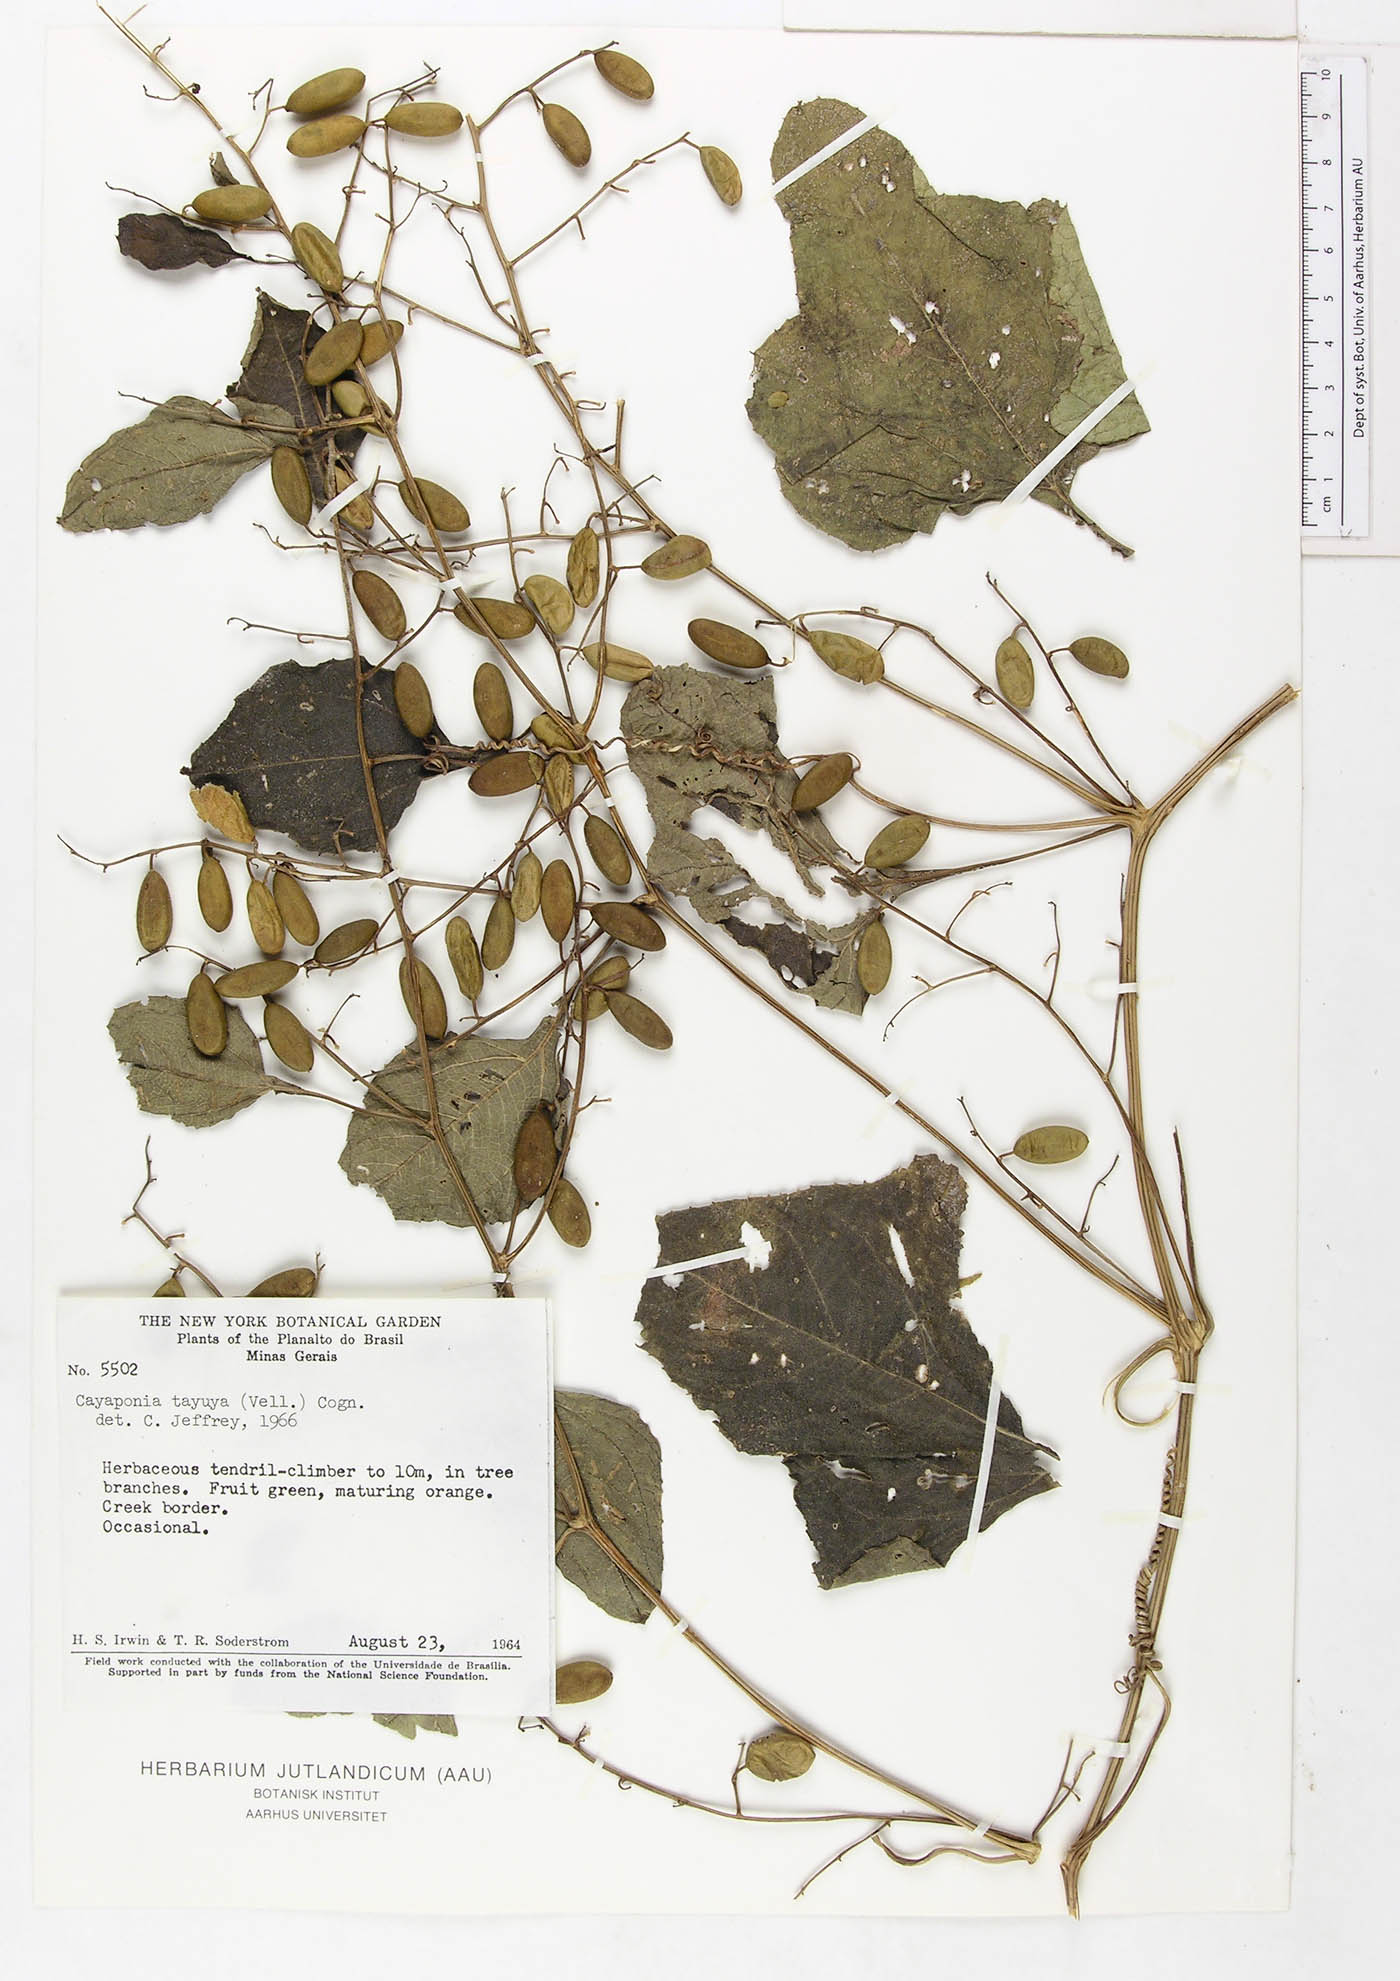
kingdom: Plantae
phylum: Tracheophyta
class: Magnoliopsida
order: Cucurbitales
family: Cucurbitaceae
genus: Cayaponia
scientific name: Cayaponia tayuya
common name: Tayuya
